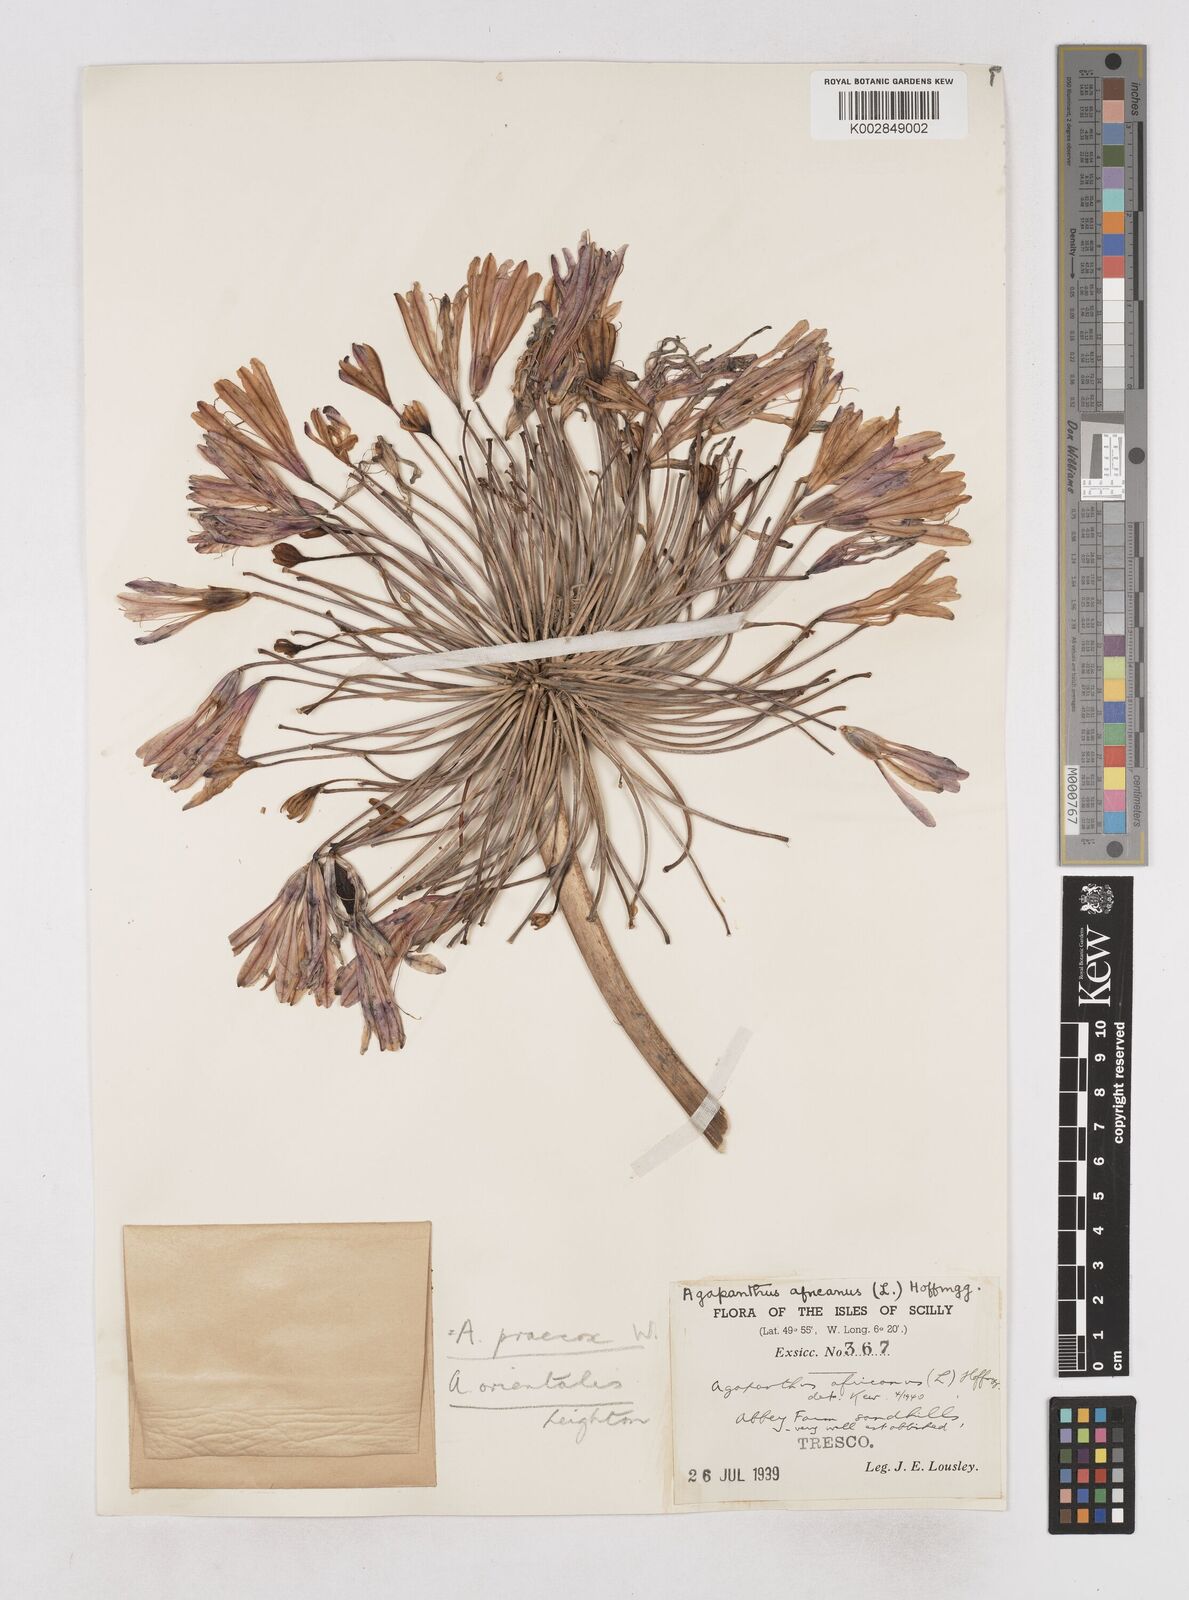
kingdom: Plantae
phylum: Tracheophyta
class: Liliopsida
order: Asparagales
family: Amaryllidaceae
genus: Agapanthus
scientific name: Agapanthus praecox
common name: African-lily
